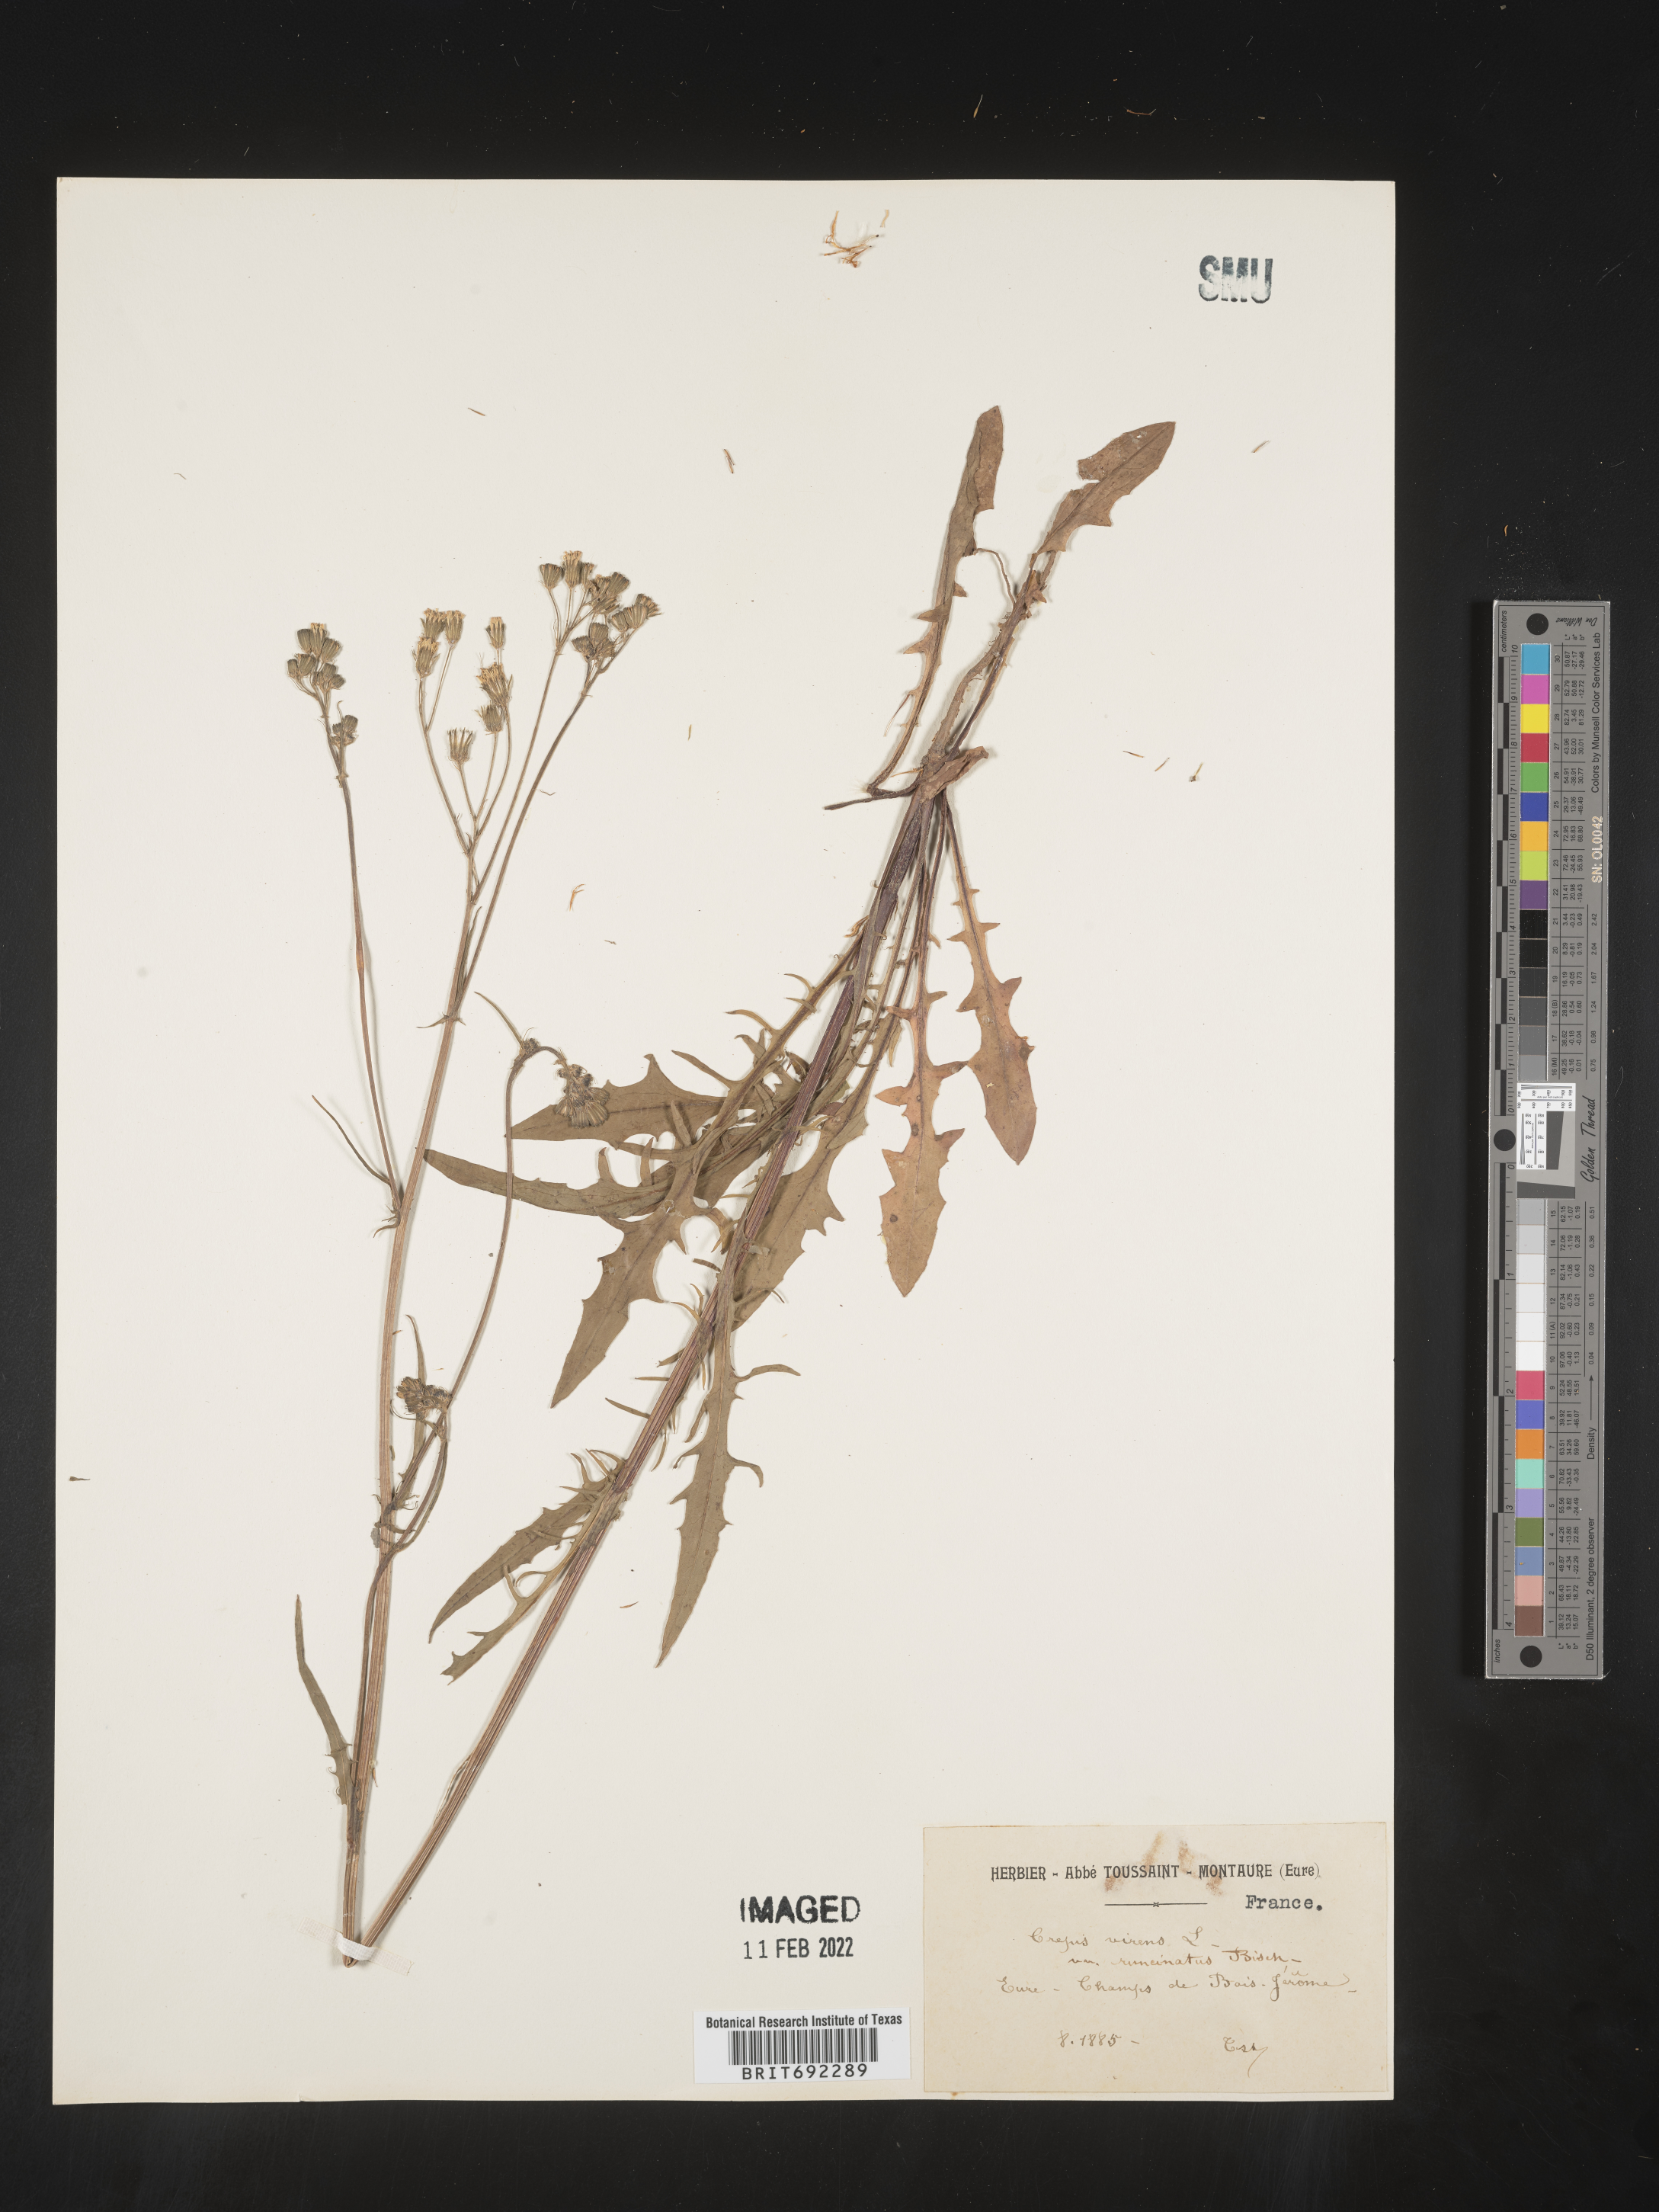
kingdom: Plantae
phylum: Tracheophyta
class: Magnoliopsida
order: Asterales
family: Asteraceae
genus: Crepis
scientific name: Crepis
